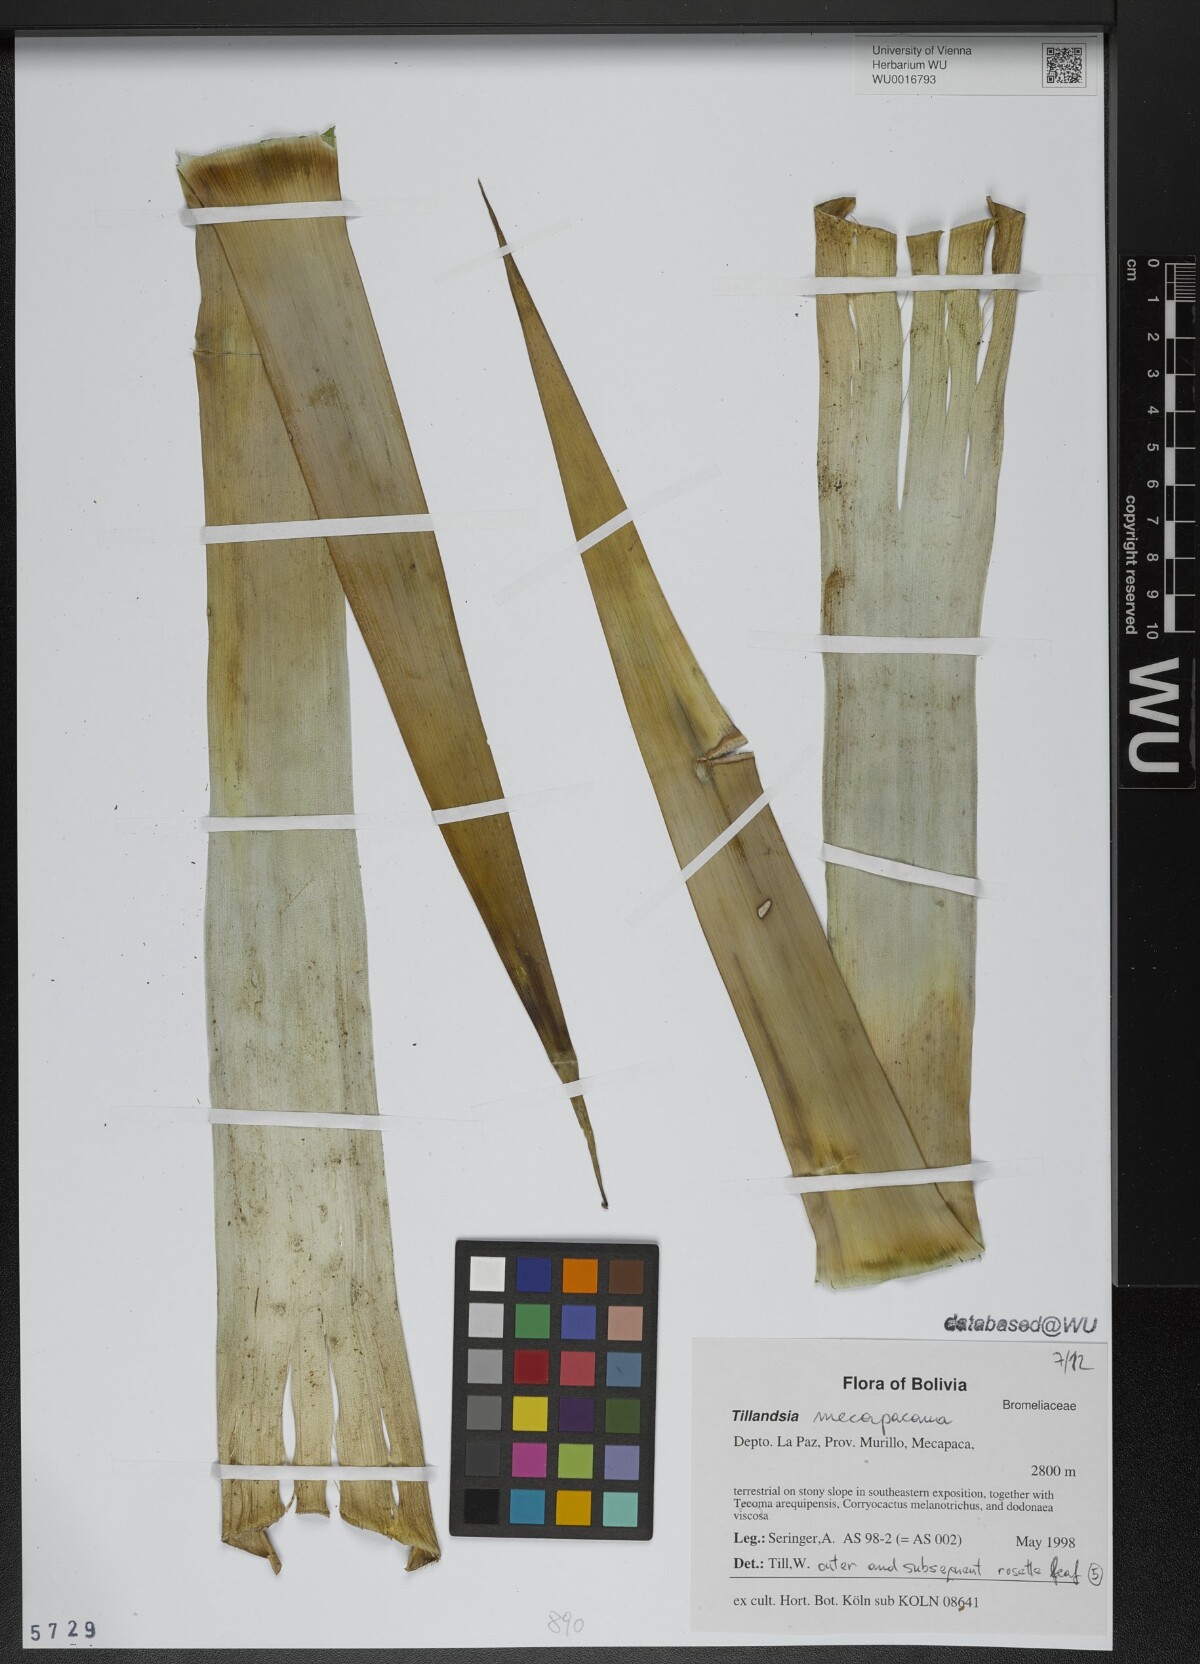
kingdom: Plantae
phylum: Tracheophyta
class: Liliopsida
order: Poales
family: Bromeliaceae
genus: Tillandsia
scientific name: Tillandsia
